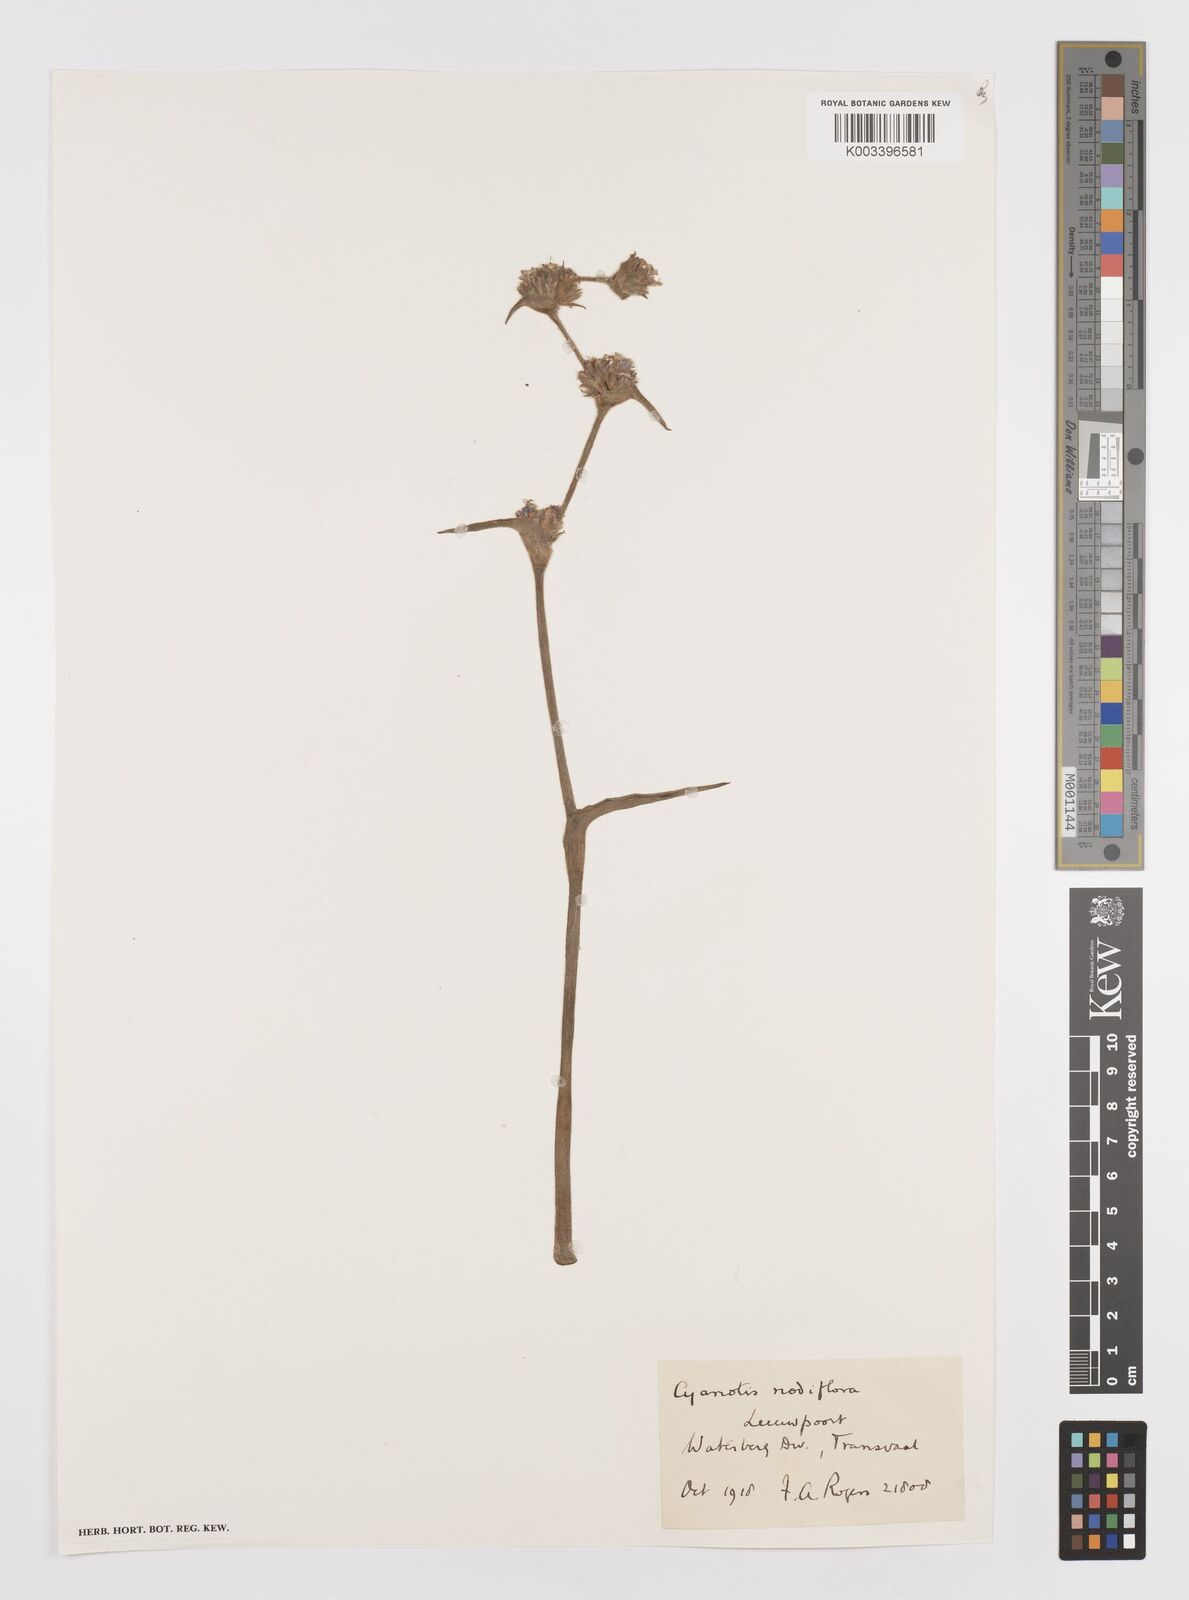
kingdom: Plantae
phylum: Tracheophyta
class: Liliopsida
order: Commelinales
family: Commelinaceae
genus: Cyanotis
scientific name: Cyanotis speciosa
